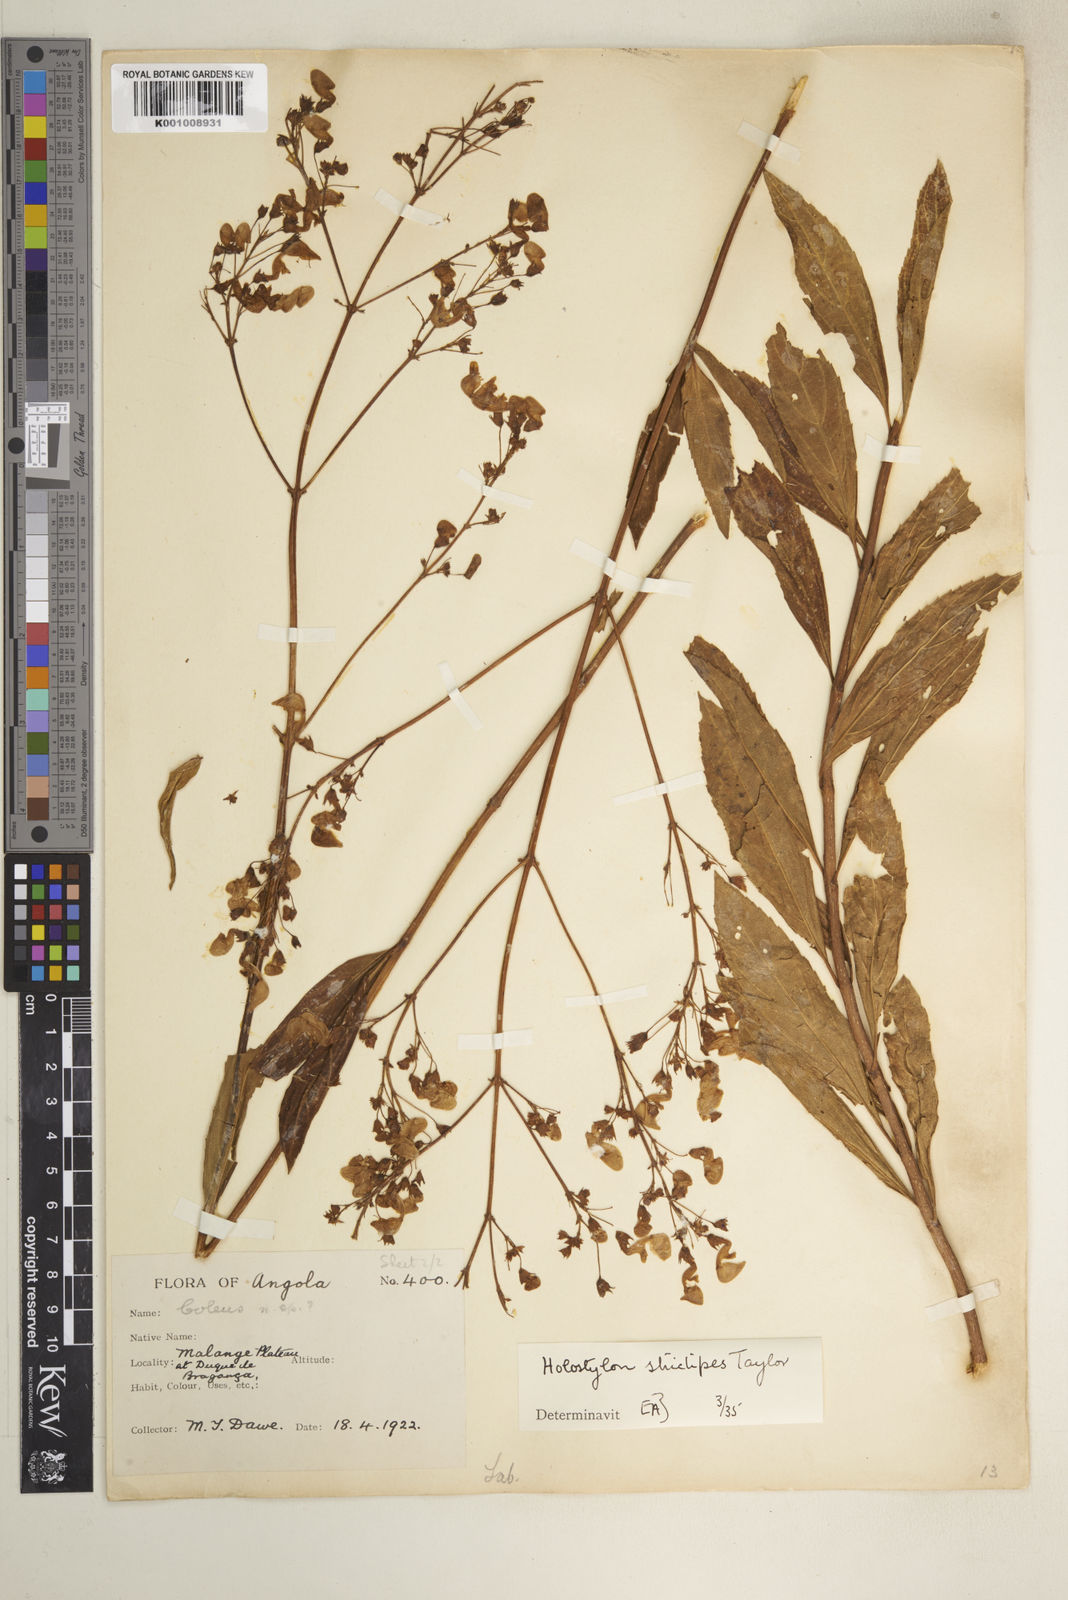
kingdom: Plantae
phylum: Tracheophyta
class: Magnoliopsida
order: Lamiales
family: Lamiaceae
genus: Coleus
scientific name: Coleus strictipes
